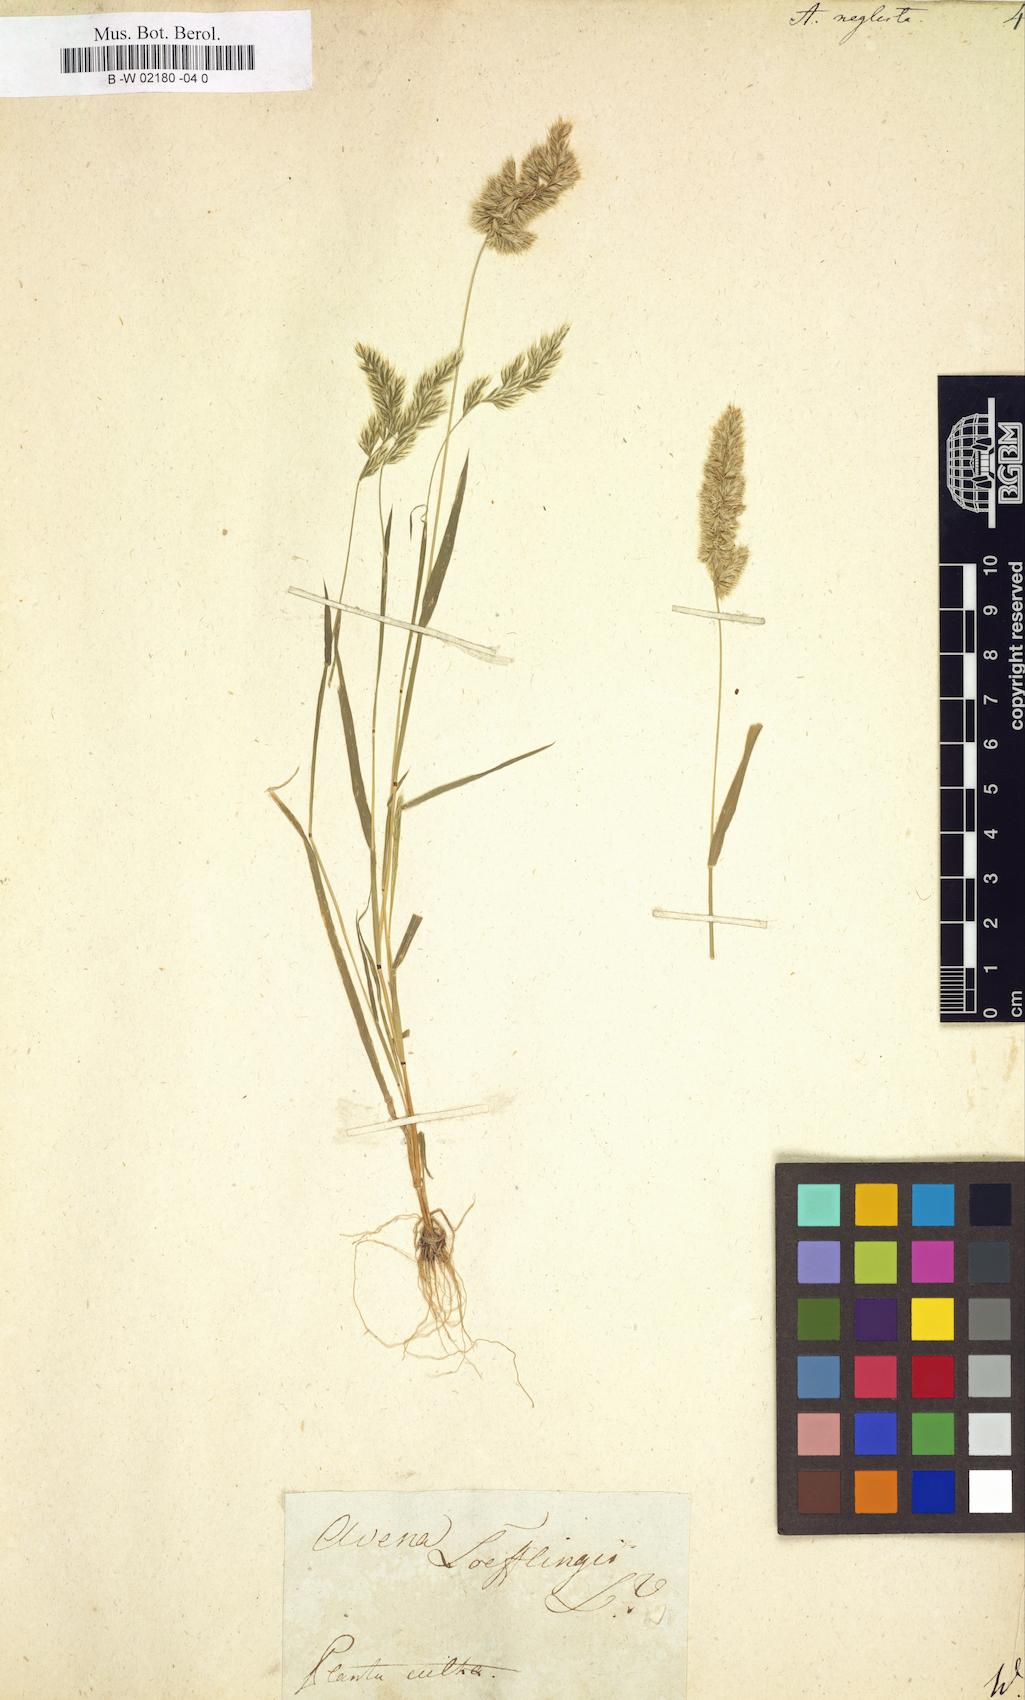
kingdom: Plantae
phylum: Tracheophyta
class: Liliopsida
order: Poales
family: Poaceae
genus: Trisetaria
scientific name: Trisetaria panicea
